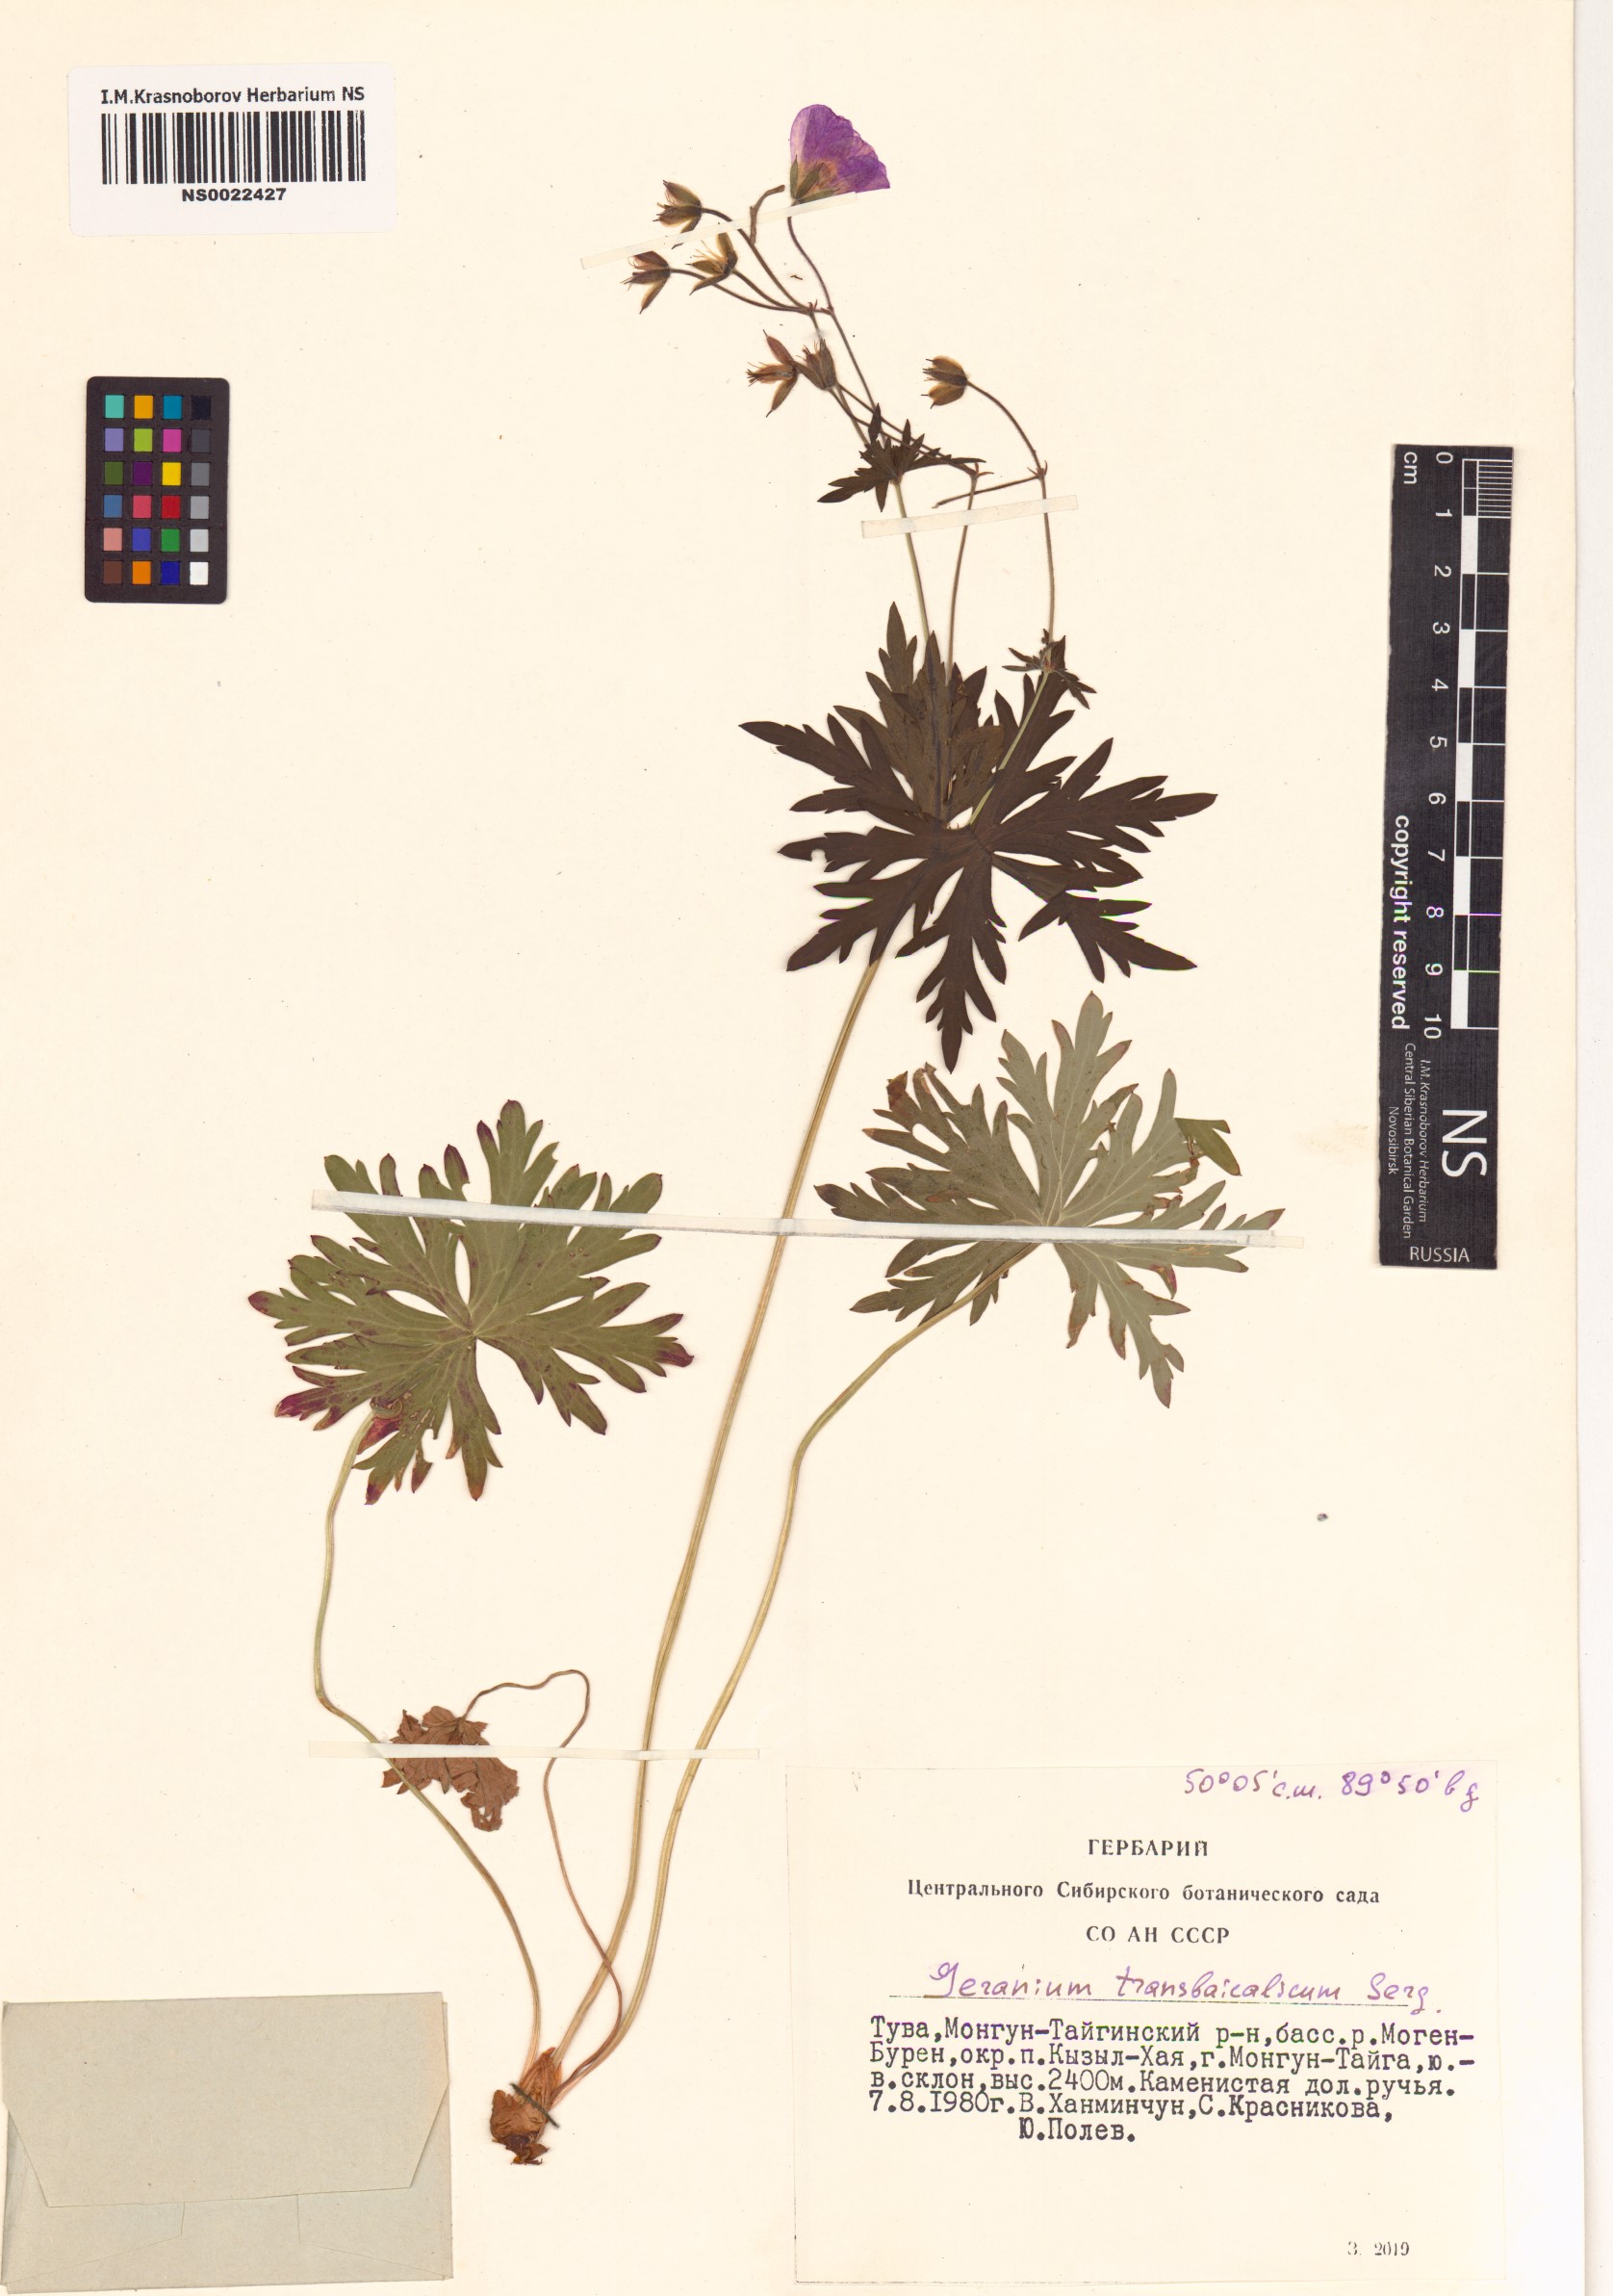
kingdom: Plantae
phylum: Tracheophyta
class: Magnoliopsida
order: Geraniales
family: Geraniaceae
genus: Geranium
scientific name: Geranium pratense
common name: Meadow crane's-bill
